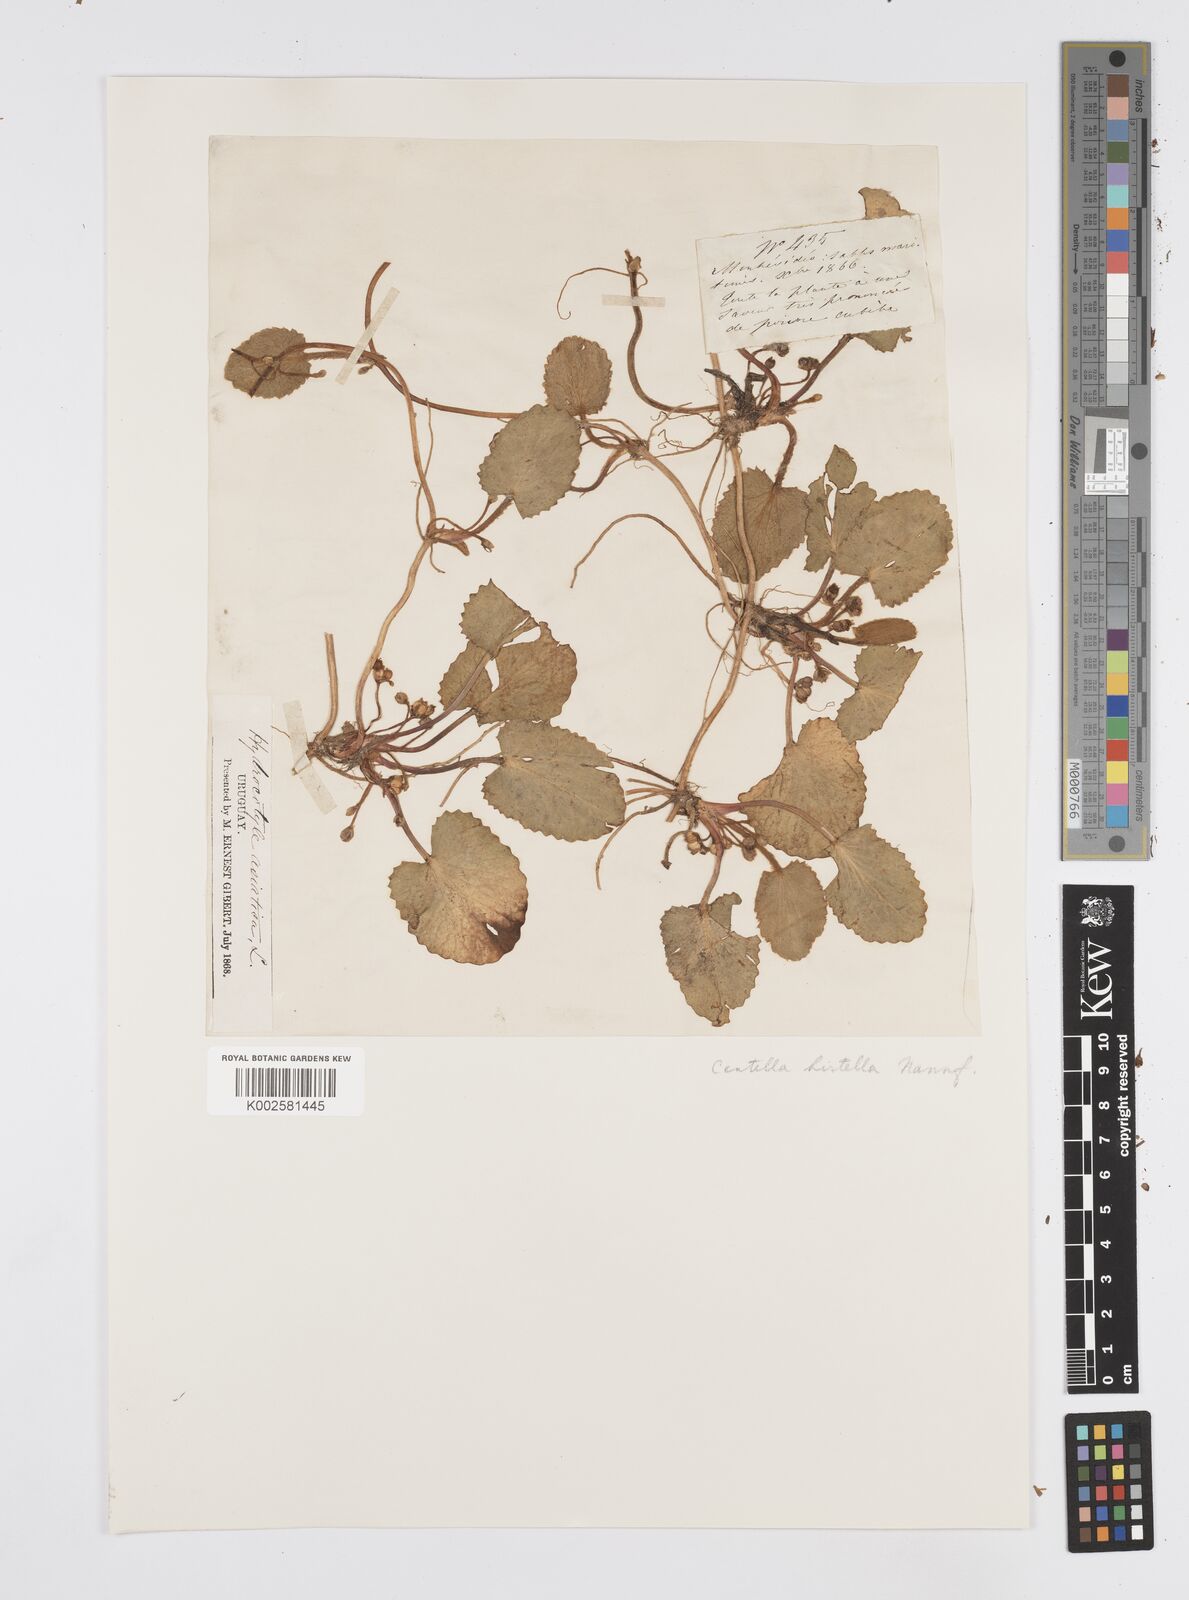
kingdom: Plantae
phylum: Tracheophyta
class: Magnoliopsida
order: Apiales
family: Apiaceae
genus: Centella
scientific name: Centella asiatica
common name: Spadeleaf
